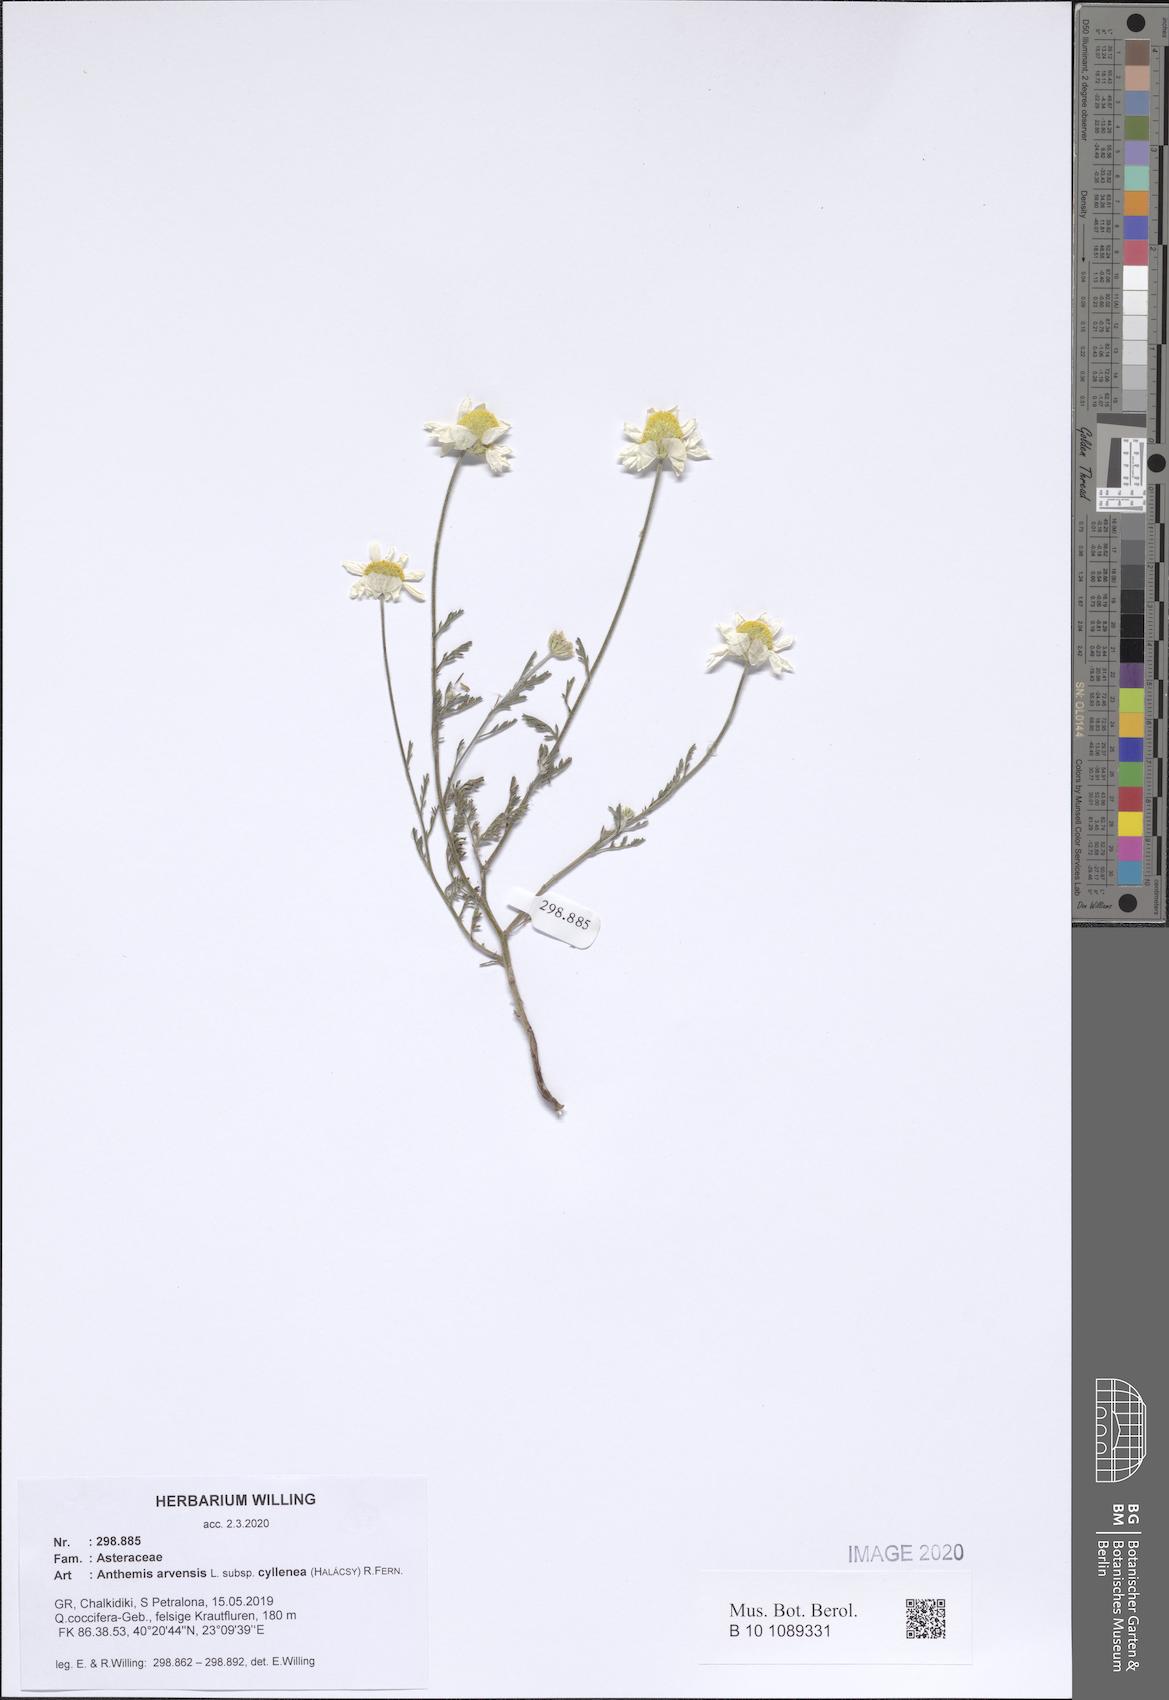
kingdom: Plantae
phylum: Tracheophyta
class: Magnoliopsida
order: Asterales
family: Asteraceae
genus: Anthemis
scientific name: Anthemis arvensis
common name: Corn chamomile
